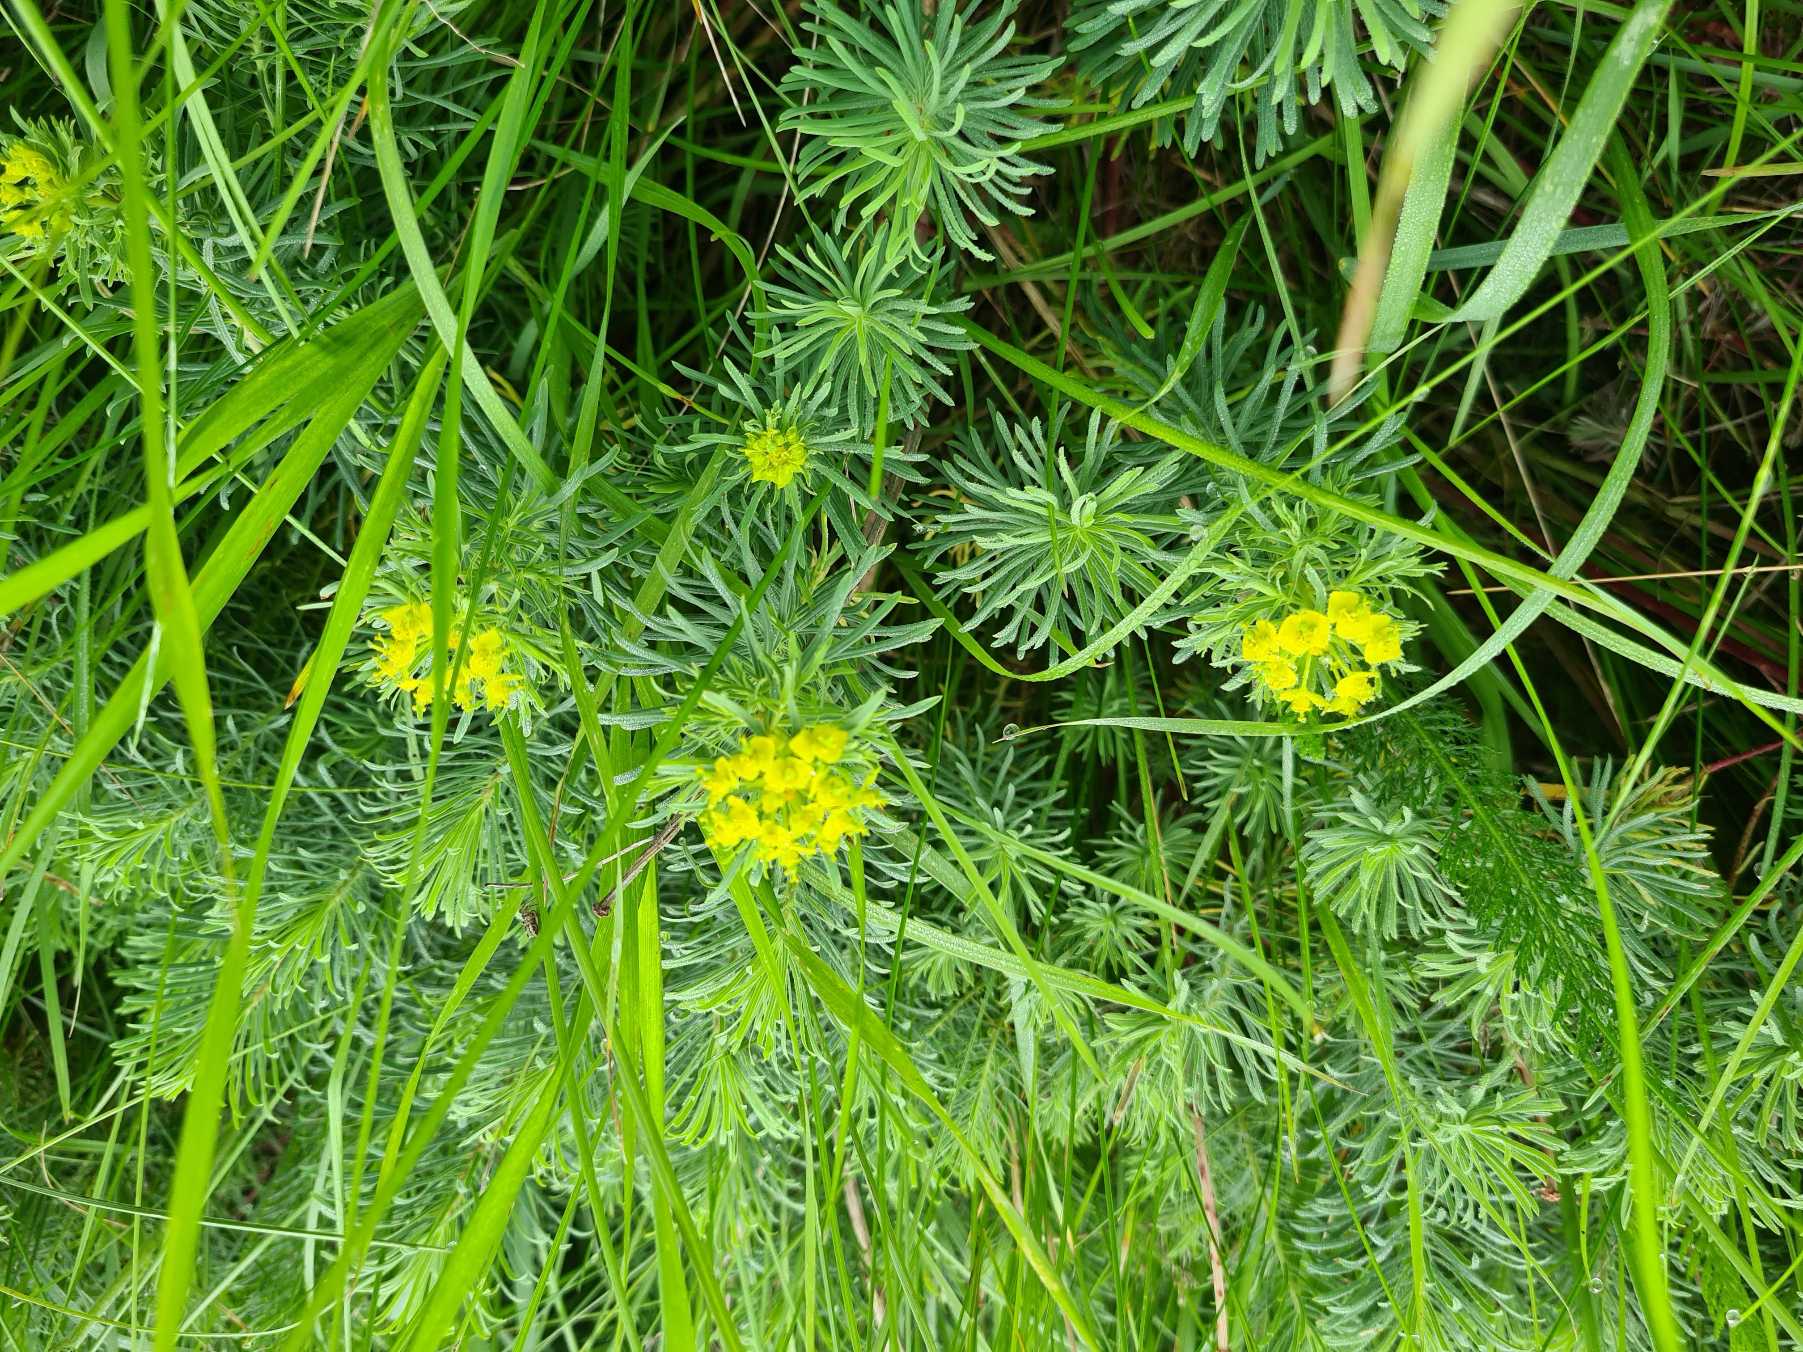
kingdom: Plantae
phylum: Tracheophyta
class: Magnoliopsida
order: Malpighiales
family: Euphorbiaceae
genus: Euphorbia
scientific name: Euphorbia cyparissias
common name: Cypres-vortemælk
